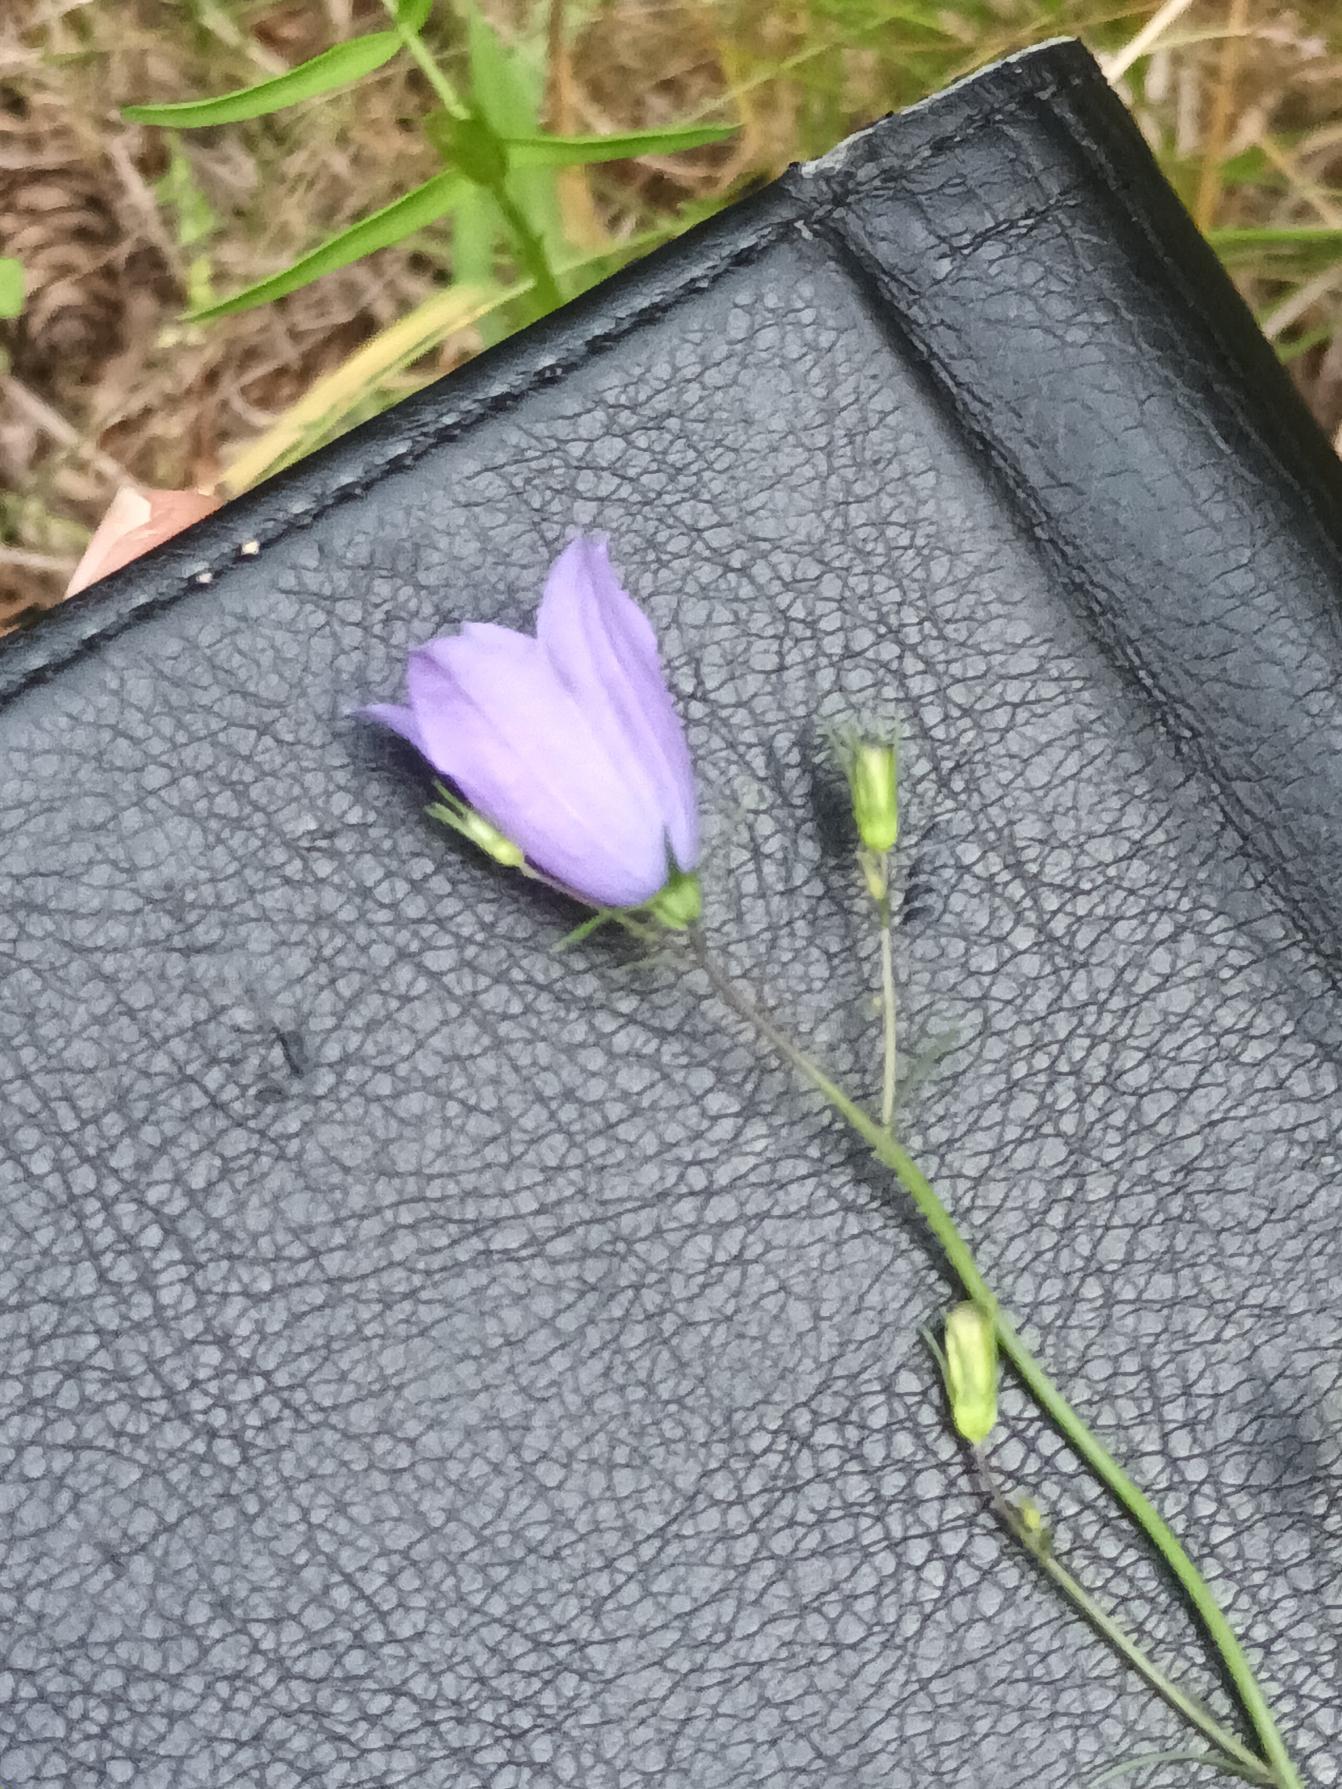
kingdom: Plantae
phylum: Tracheophyta
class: Magnoliopsida
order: Asterales
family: Campanulaceae
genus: Campanula
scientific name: Campanula rotundifolia
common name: Liden klokke
